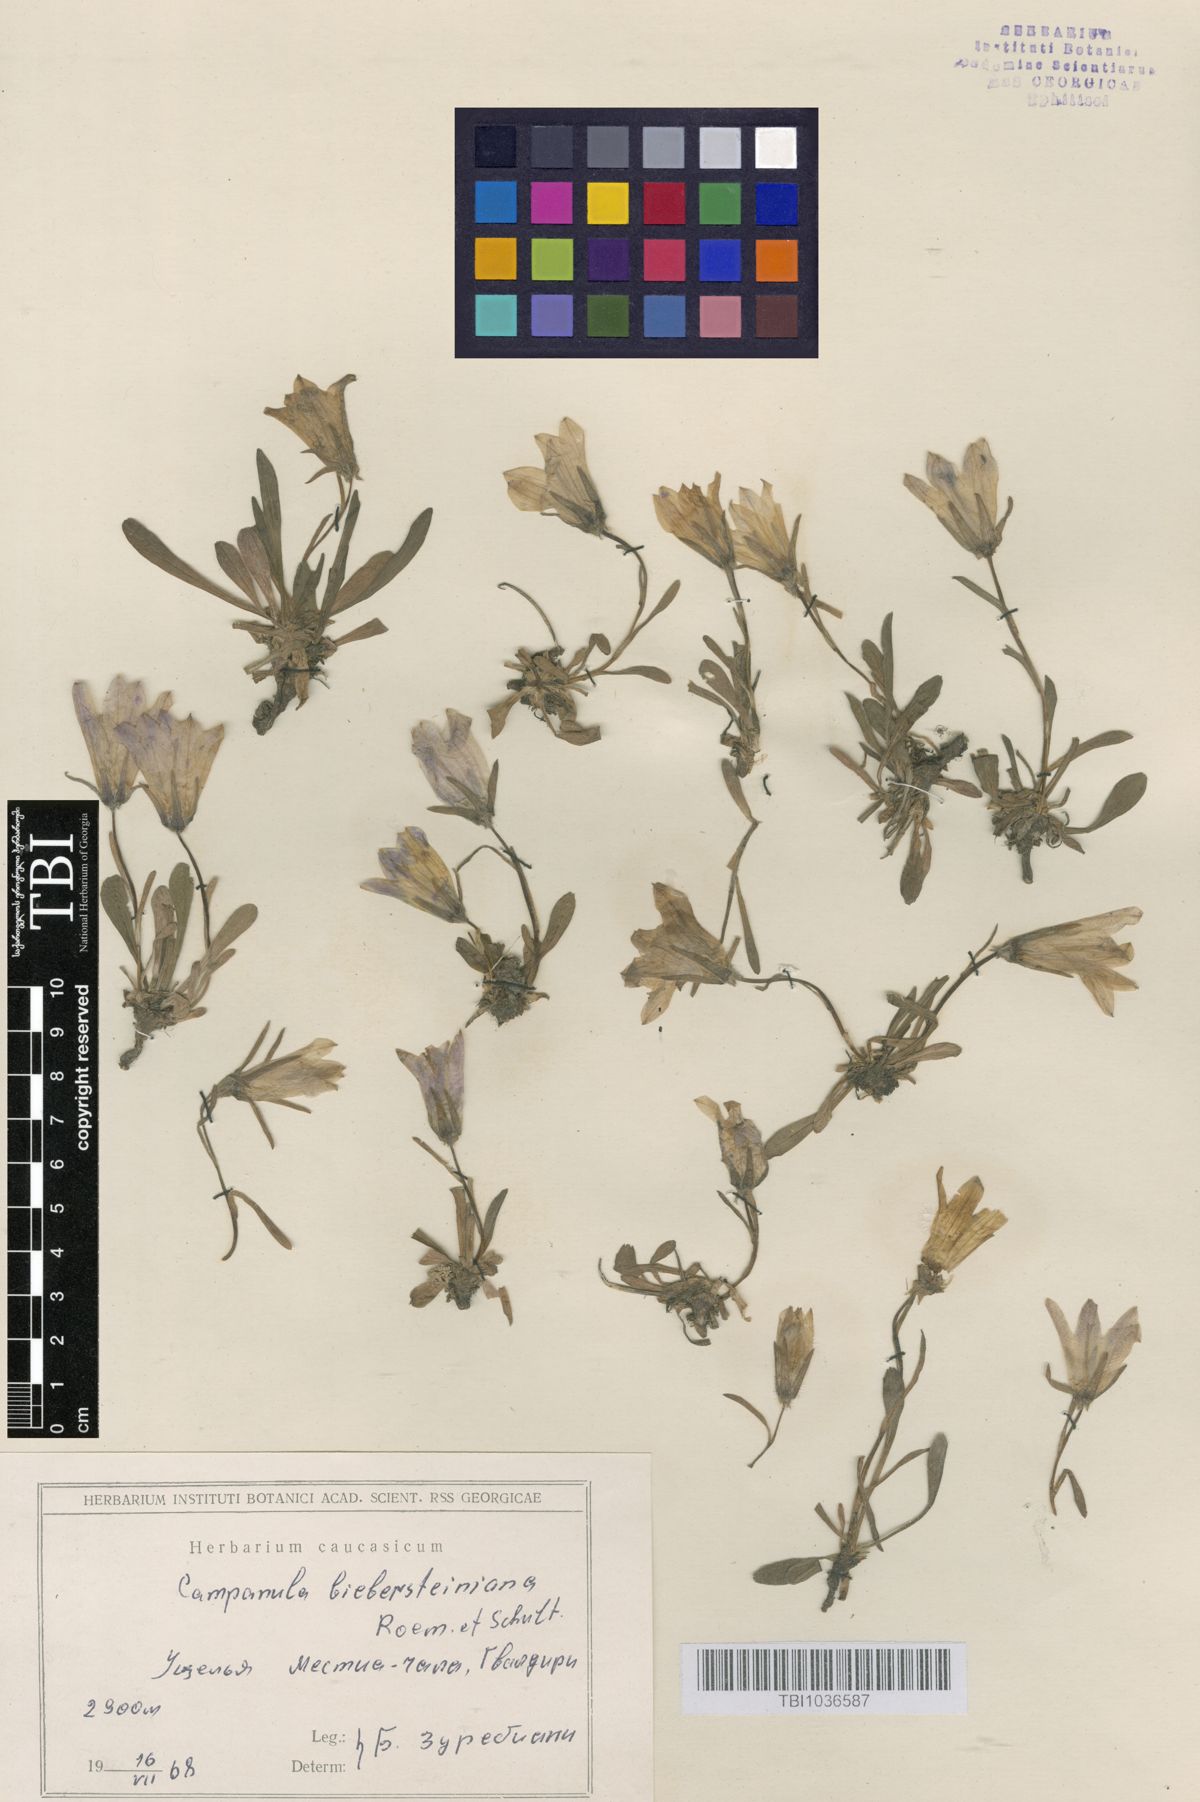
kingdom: Plantae
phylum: Tracheophyta
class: Magnoliopsida
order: Asterales
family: Campanulaceae
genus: Campanula
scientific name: Campanula tridentata
